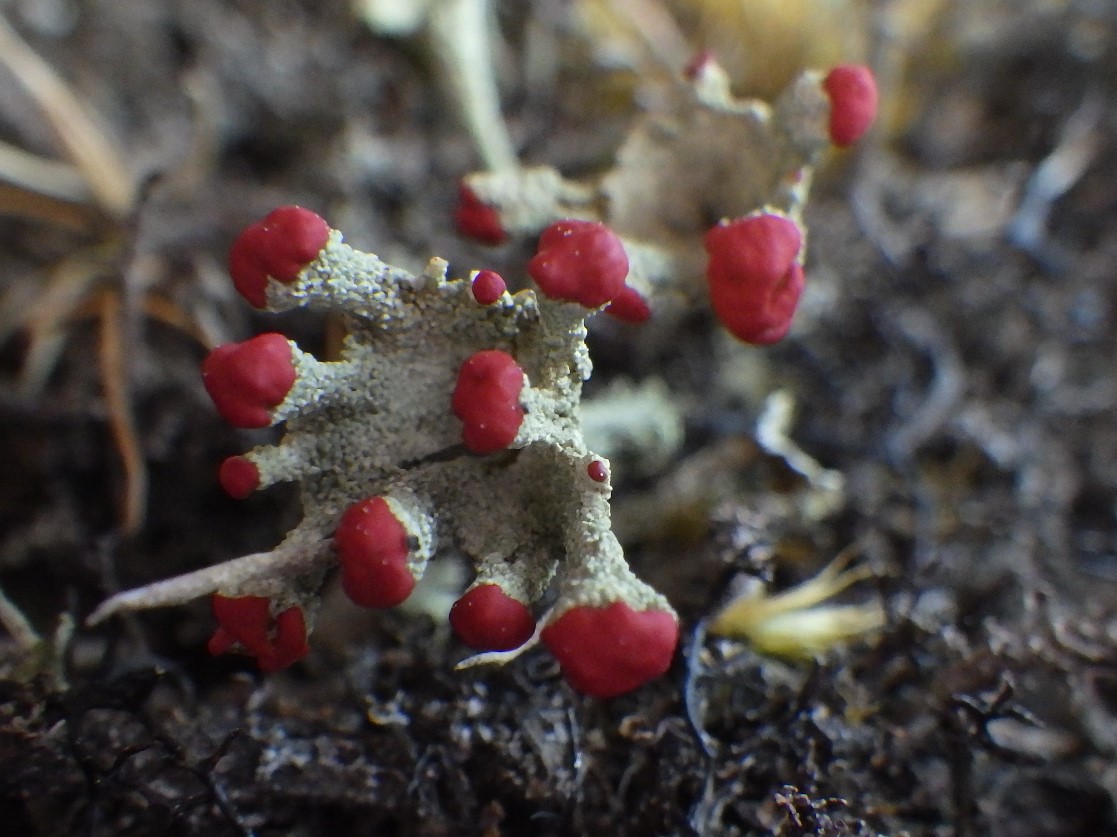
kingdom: Fungi
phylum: Ascomycota
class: Lecanoromycetes
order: Lecanorales
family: Cladoniaceae
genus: Cladonia
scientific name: Cladonia diversa
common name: rød bægerlav
